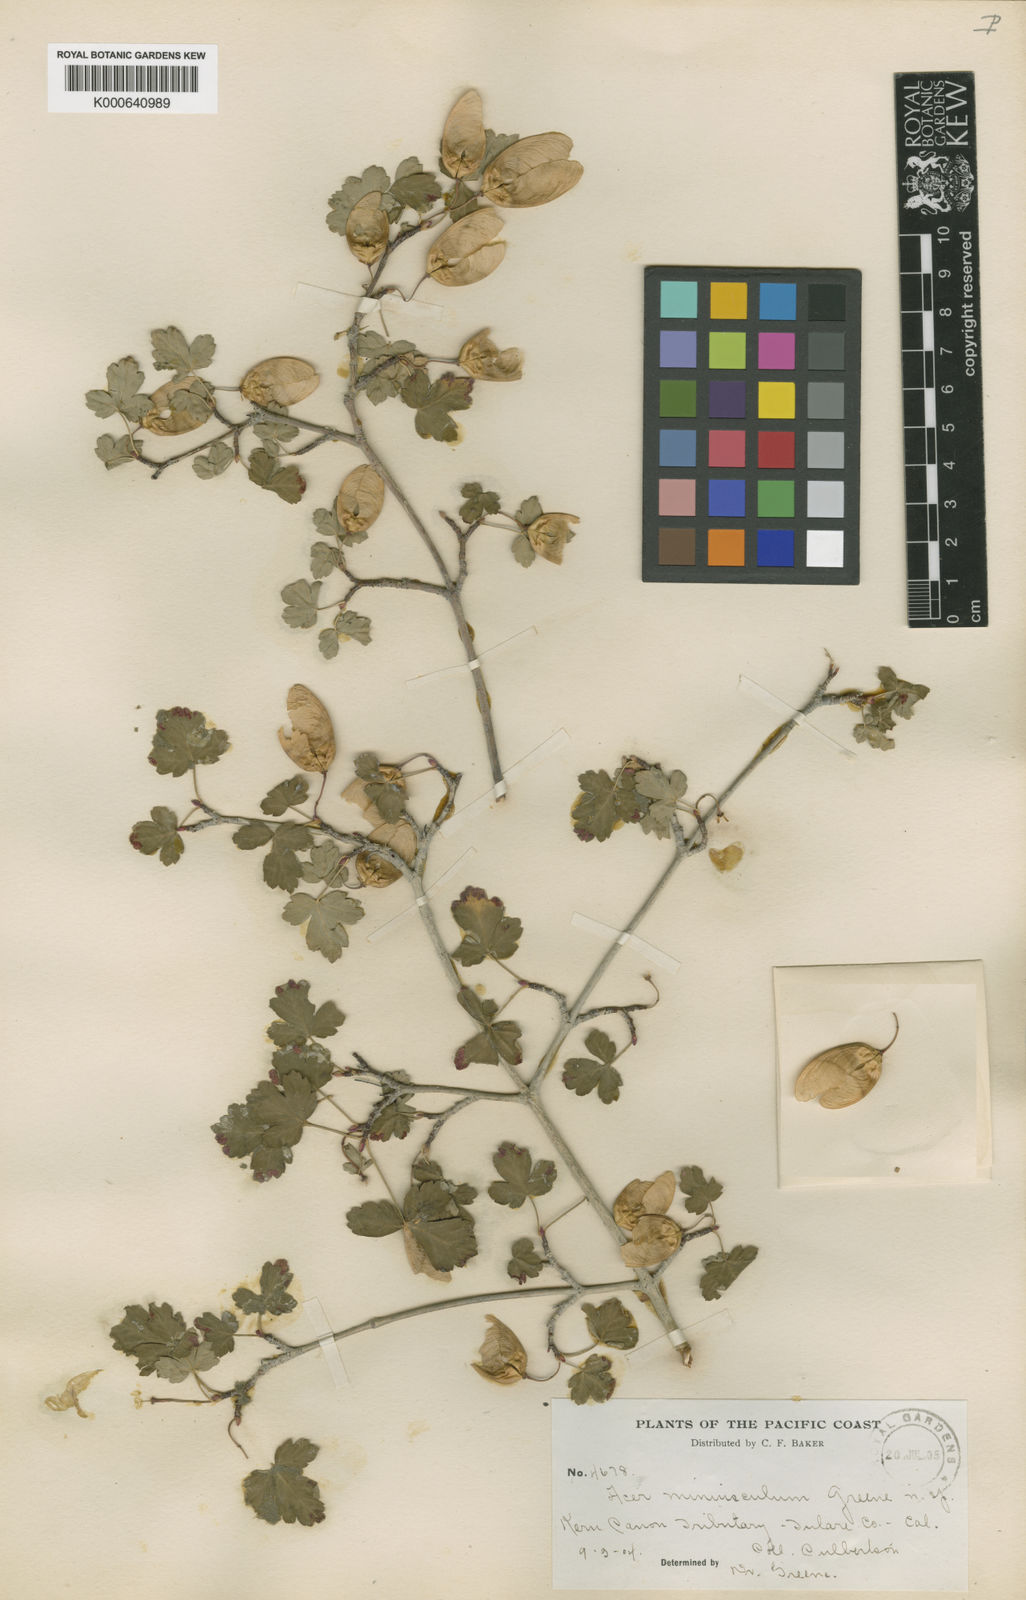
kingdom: Plantae
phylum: Tracheophyta
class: Magnoliopsida
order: Sapindales
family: Sapindaceae
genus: Acer
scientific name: Acer glabrum
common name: Rocky mountain maple
